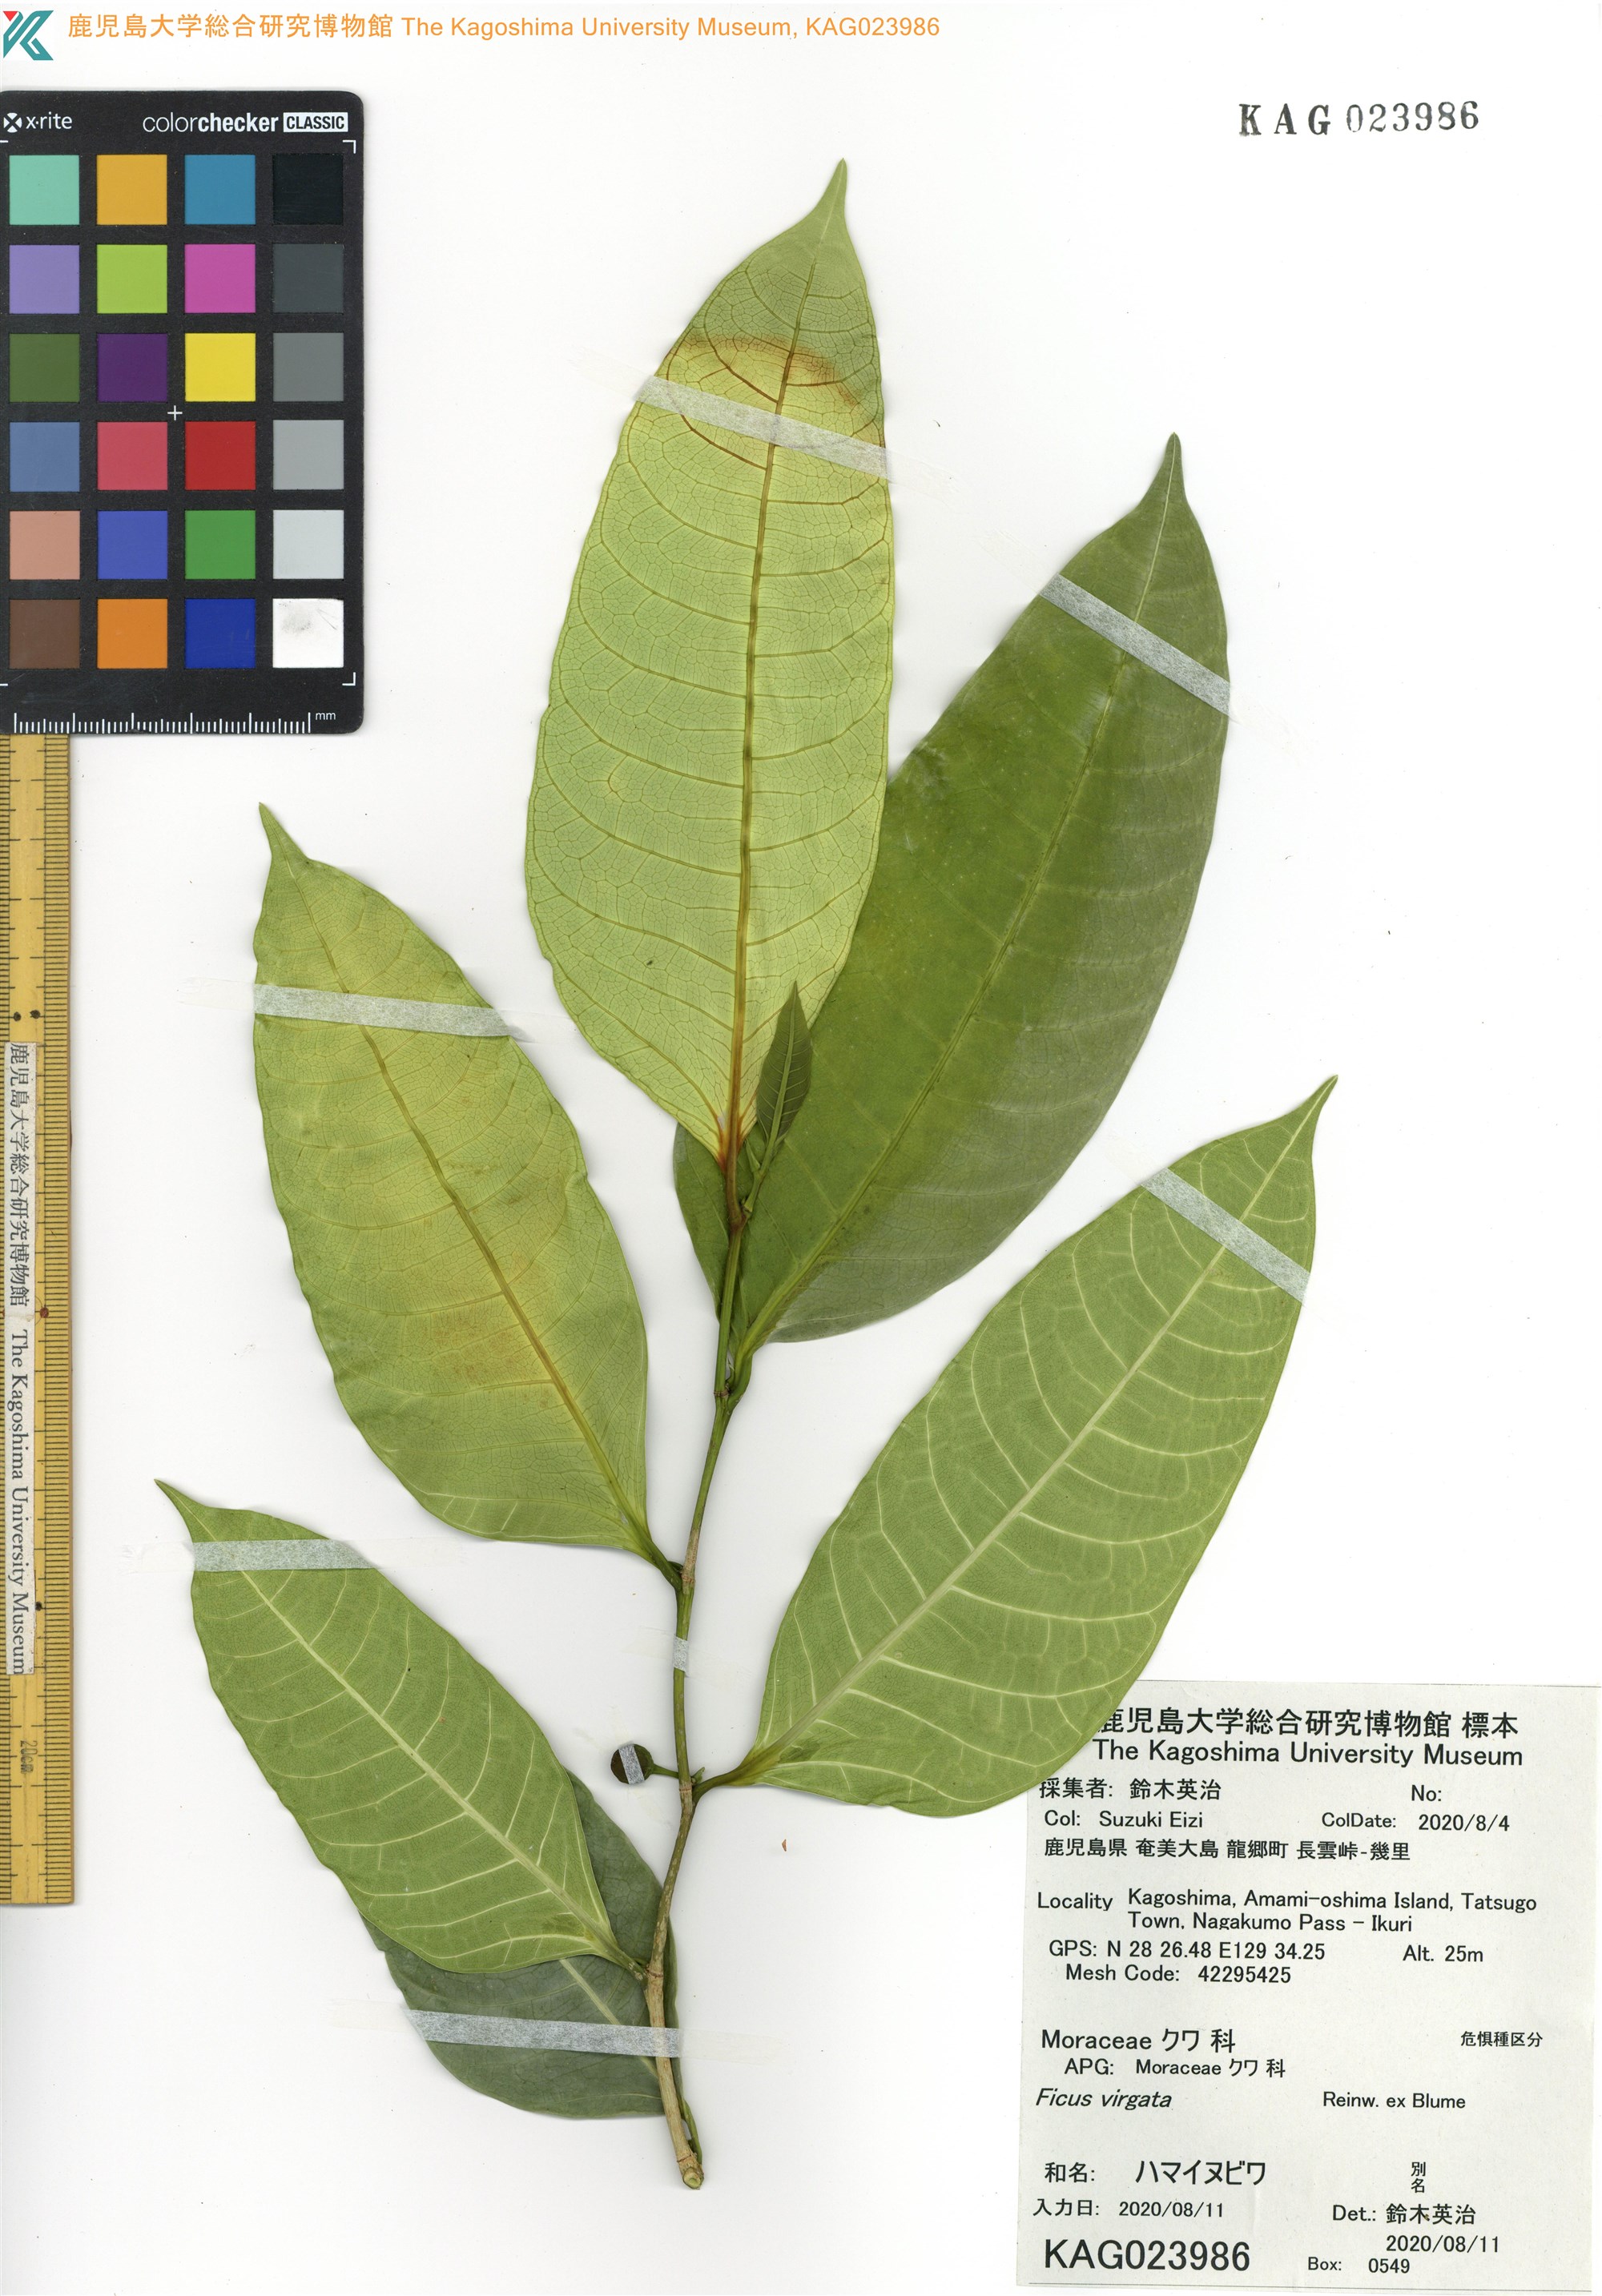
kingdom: Plantae
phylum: Tracheophyta
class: Magnoliopsida
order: Rosales
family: Moraceae
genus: Ficus
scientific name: Ficus virgata
